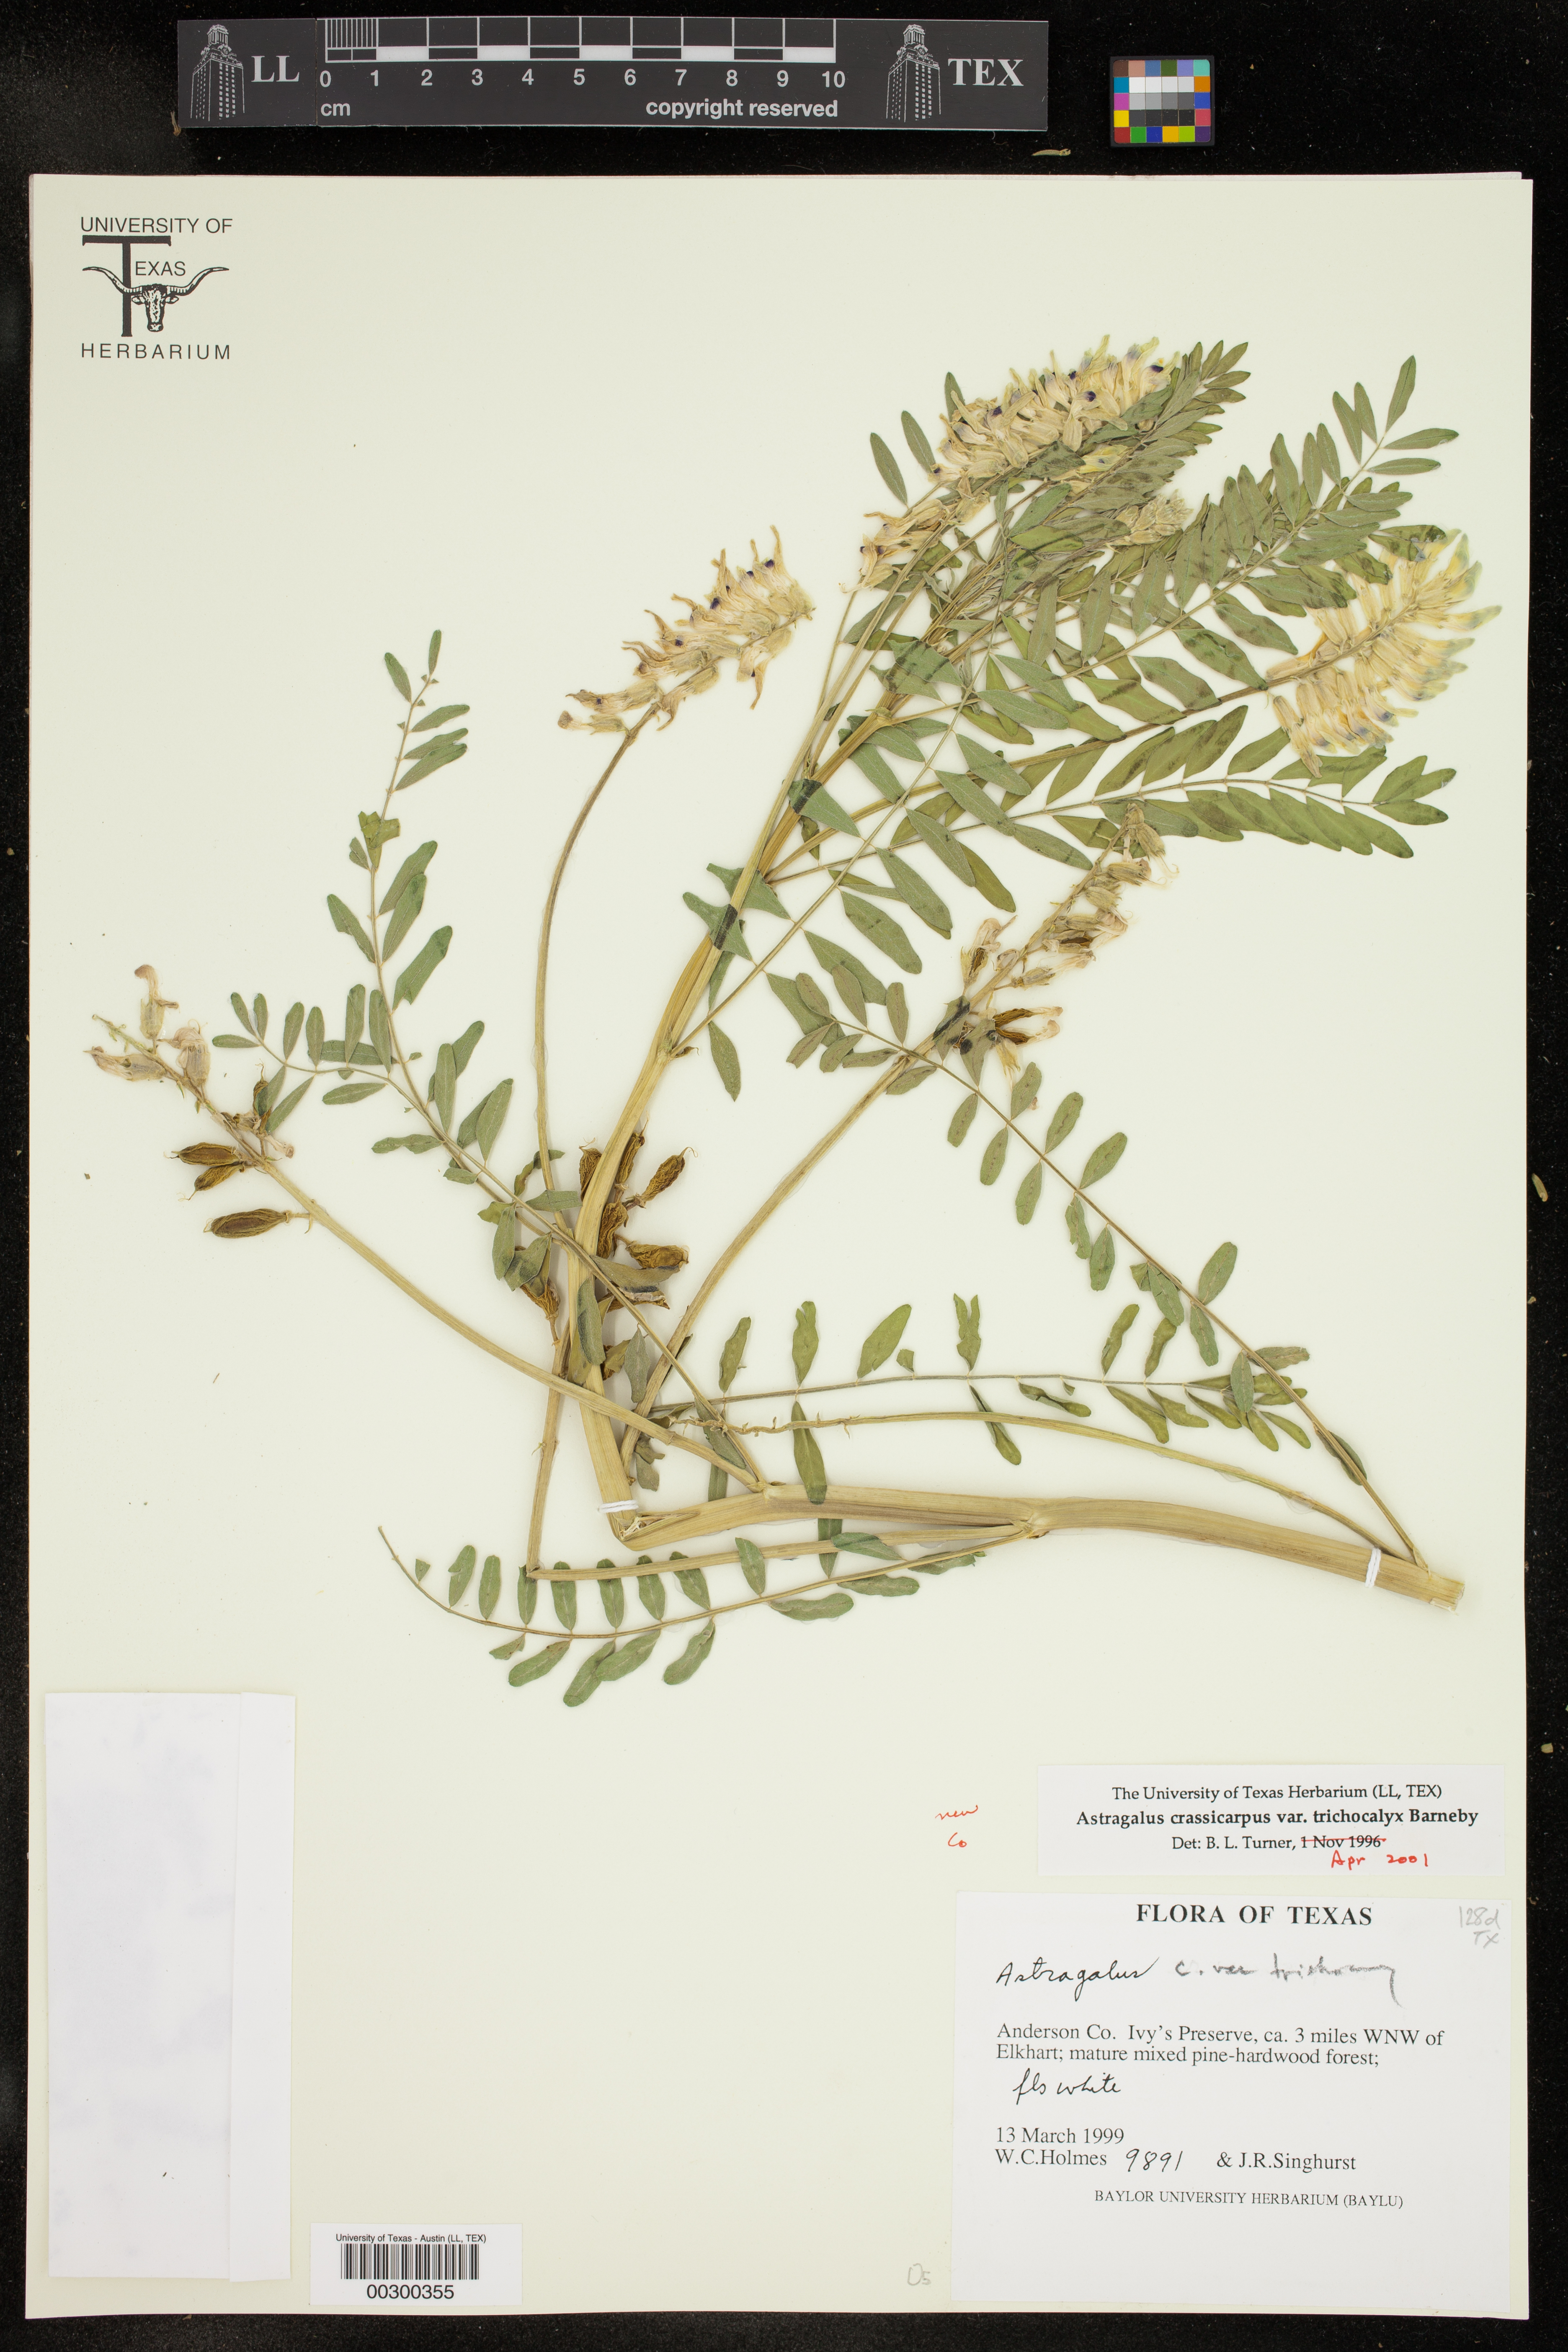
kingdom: Plantae
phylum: Tracheophyta
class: Magnoliopsida
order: Fabales
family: Fabaceae
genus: Astragalus
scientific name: Astragalus crassicarpus
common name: Ground-plum milk-vetch
